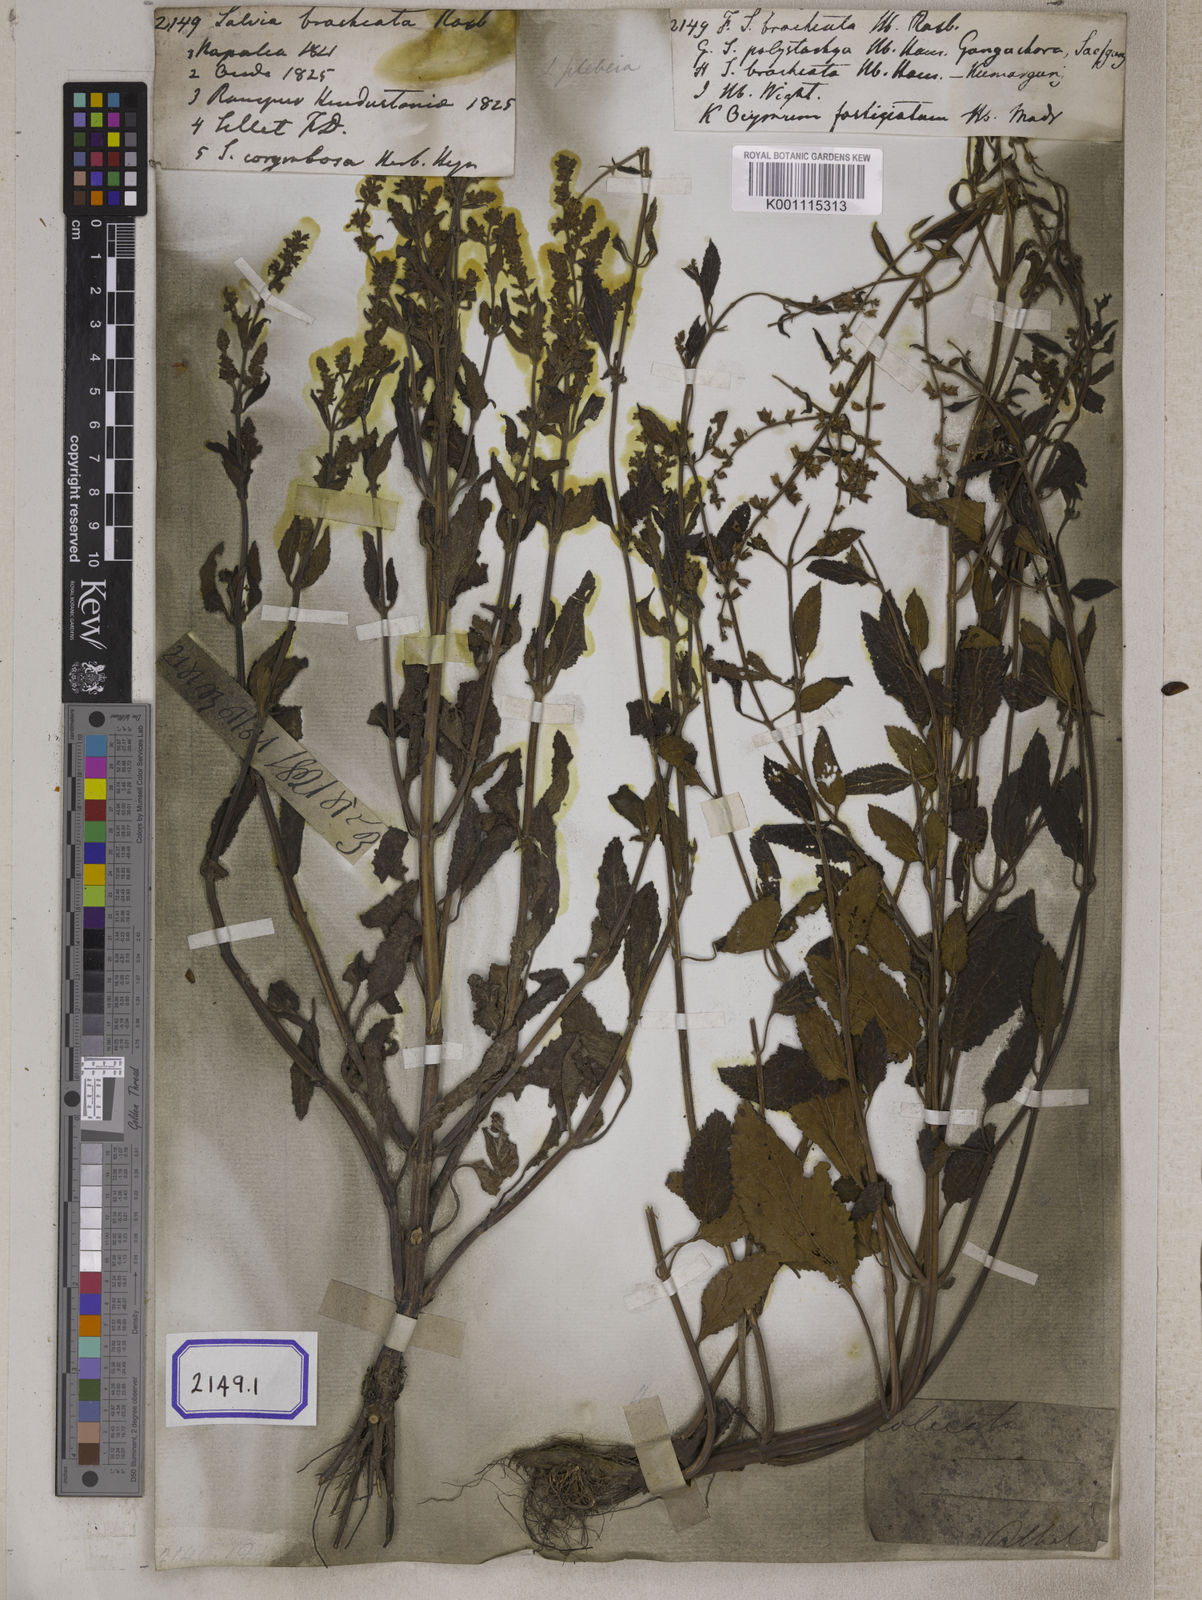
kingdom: Plantae
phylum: Tracheophyta
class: Magnoliopsida
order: Lamiales
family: Lamiaceae
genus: Salvia
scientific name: Salvia plebeia
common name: Australian sage
